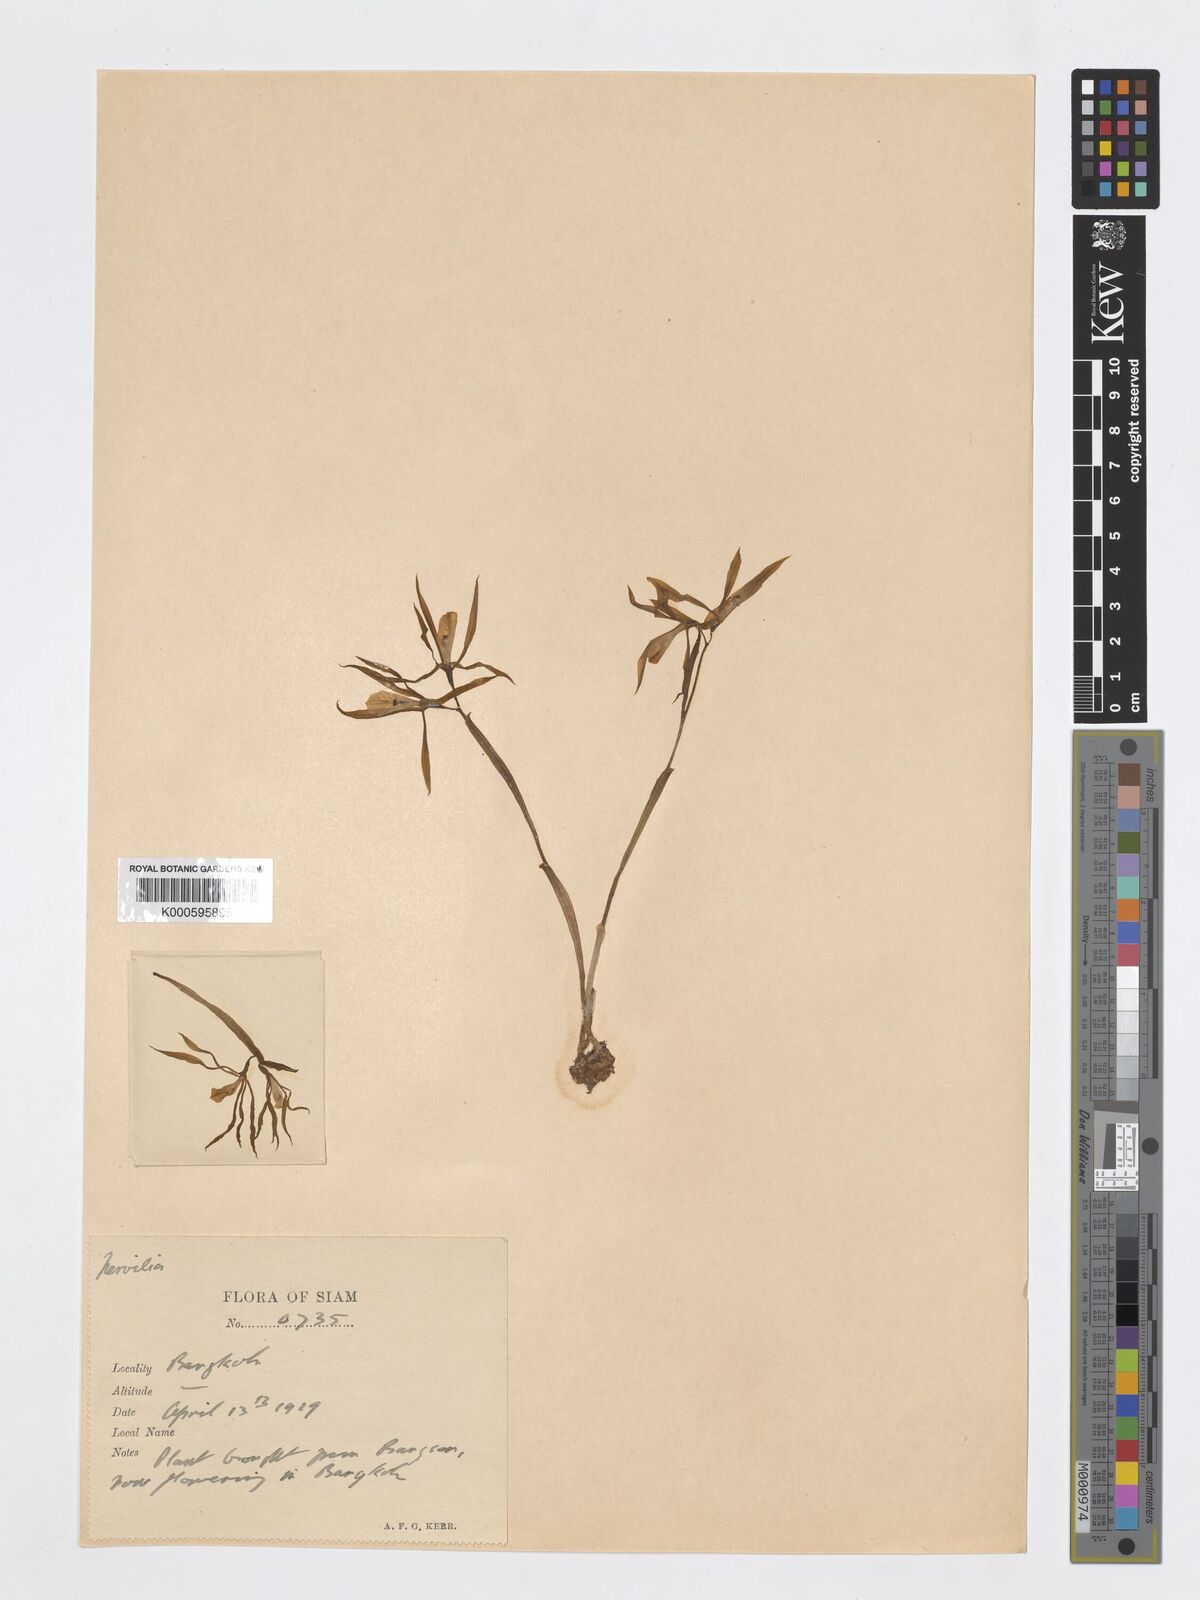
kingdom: Plantae
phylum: Tracheophyta
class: Liliopsida
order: Asparagales
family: Orchidaceae
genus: Nervilia
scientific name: Nervilia plicata
